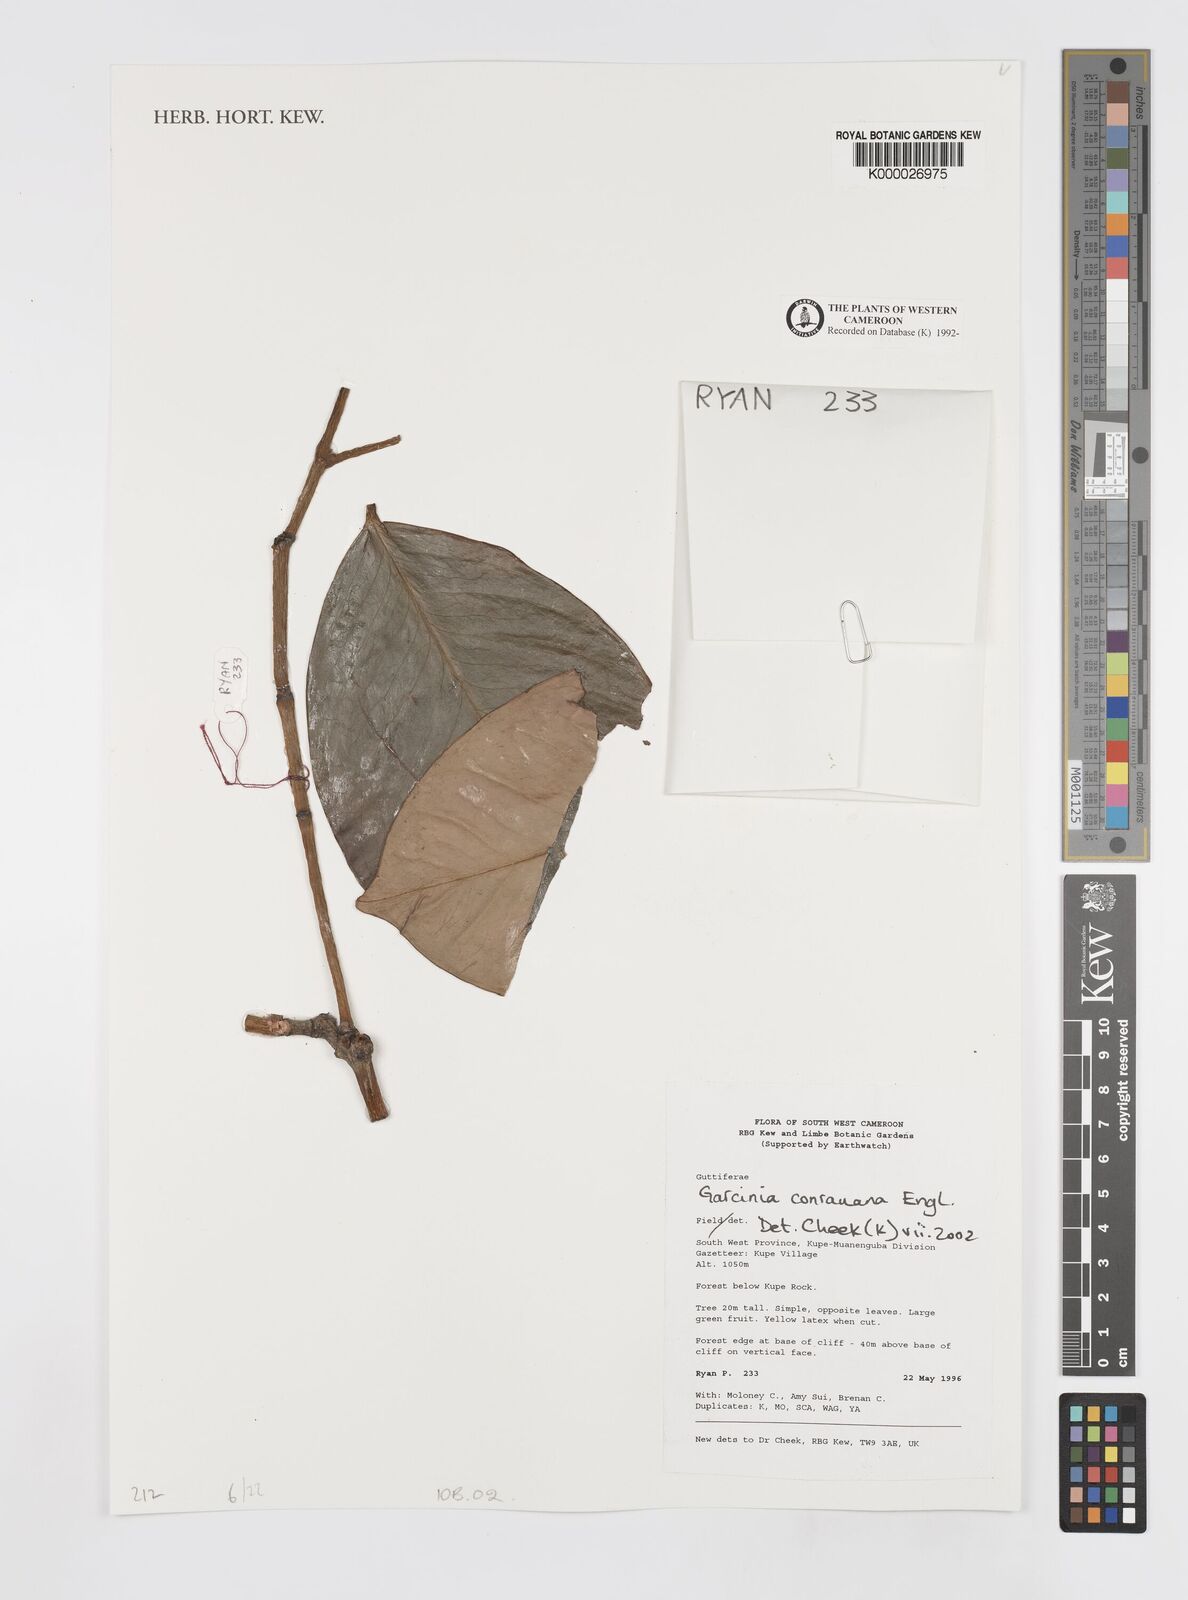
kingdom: Plantae
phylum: Tracheophyta
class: Magnoliopsida
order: Malpighiales
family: Clusiaceae
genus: Garcinia
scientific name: Garcinia conrauana
